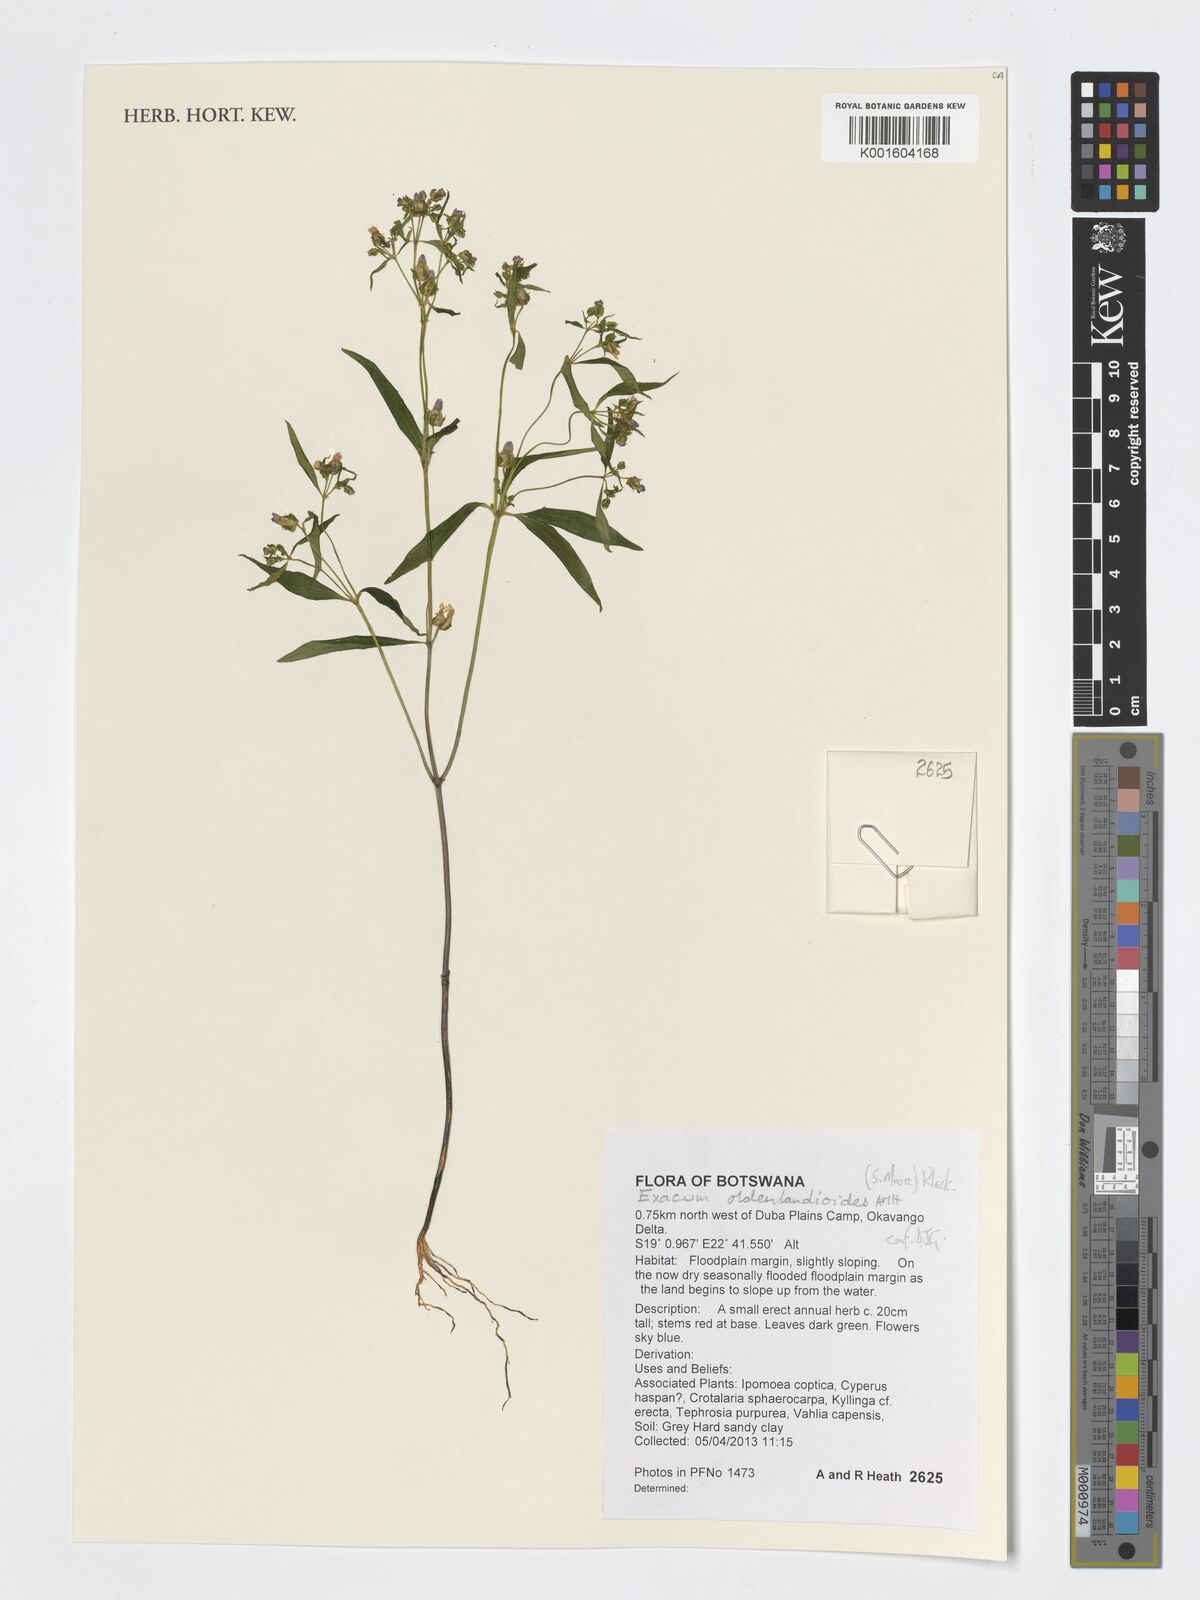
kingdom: Plantae
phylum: Tracheophyta
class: Magnoliopsida
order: Gentianales
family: Gentianaceae
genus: Exacum
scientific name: Exacum oldenlandioides
